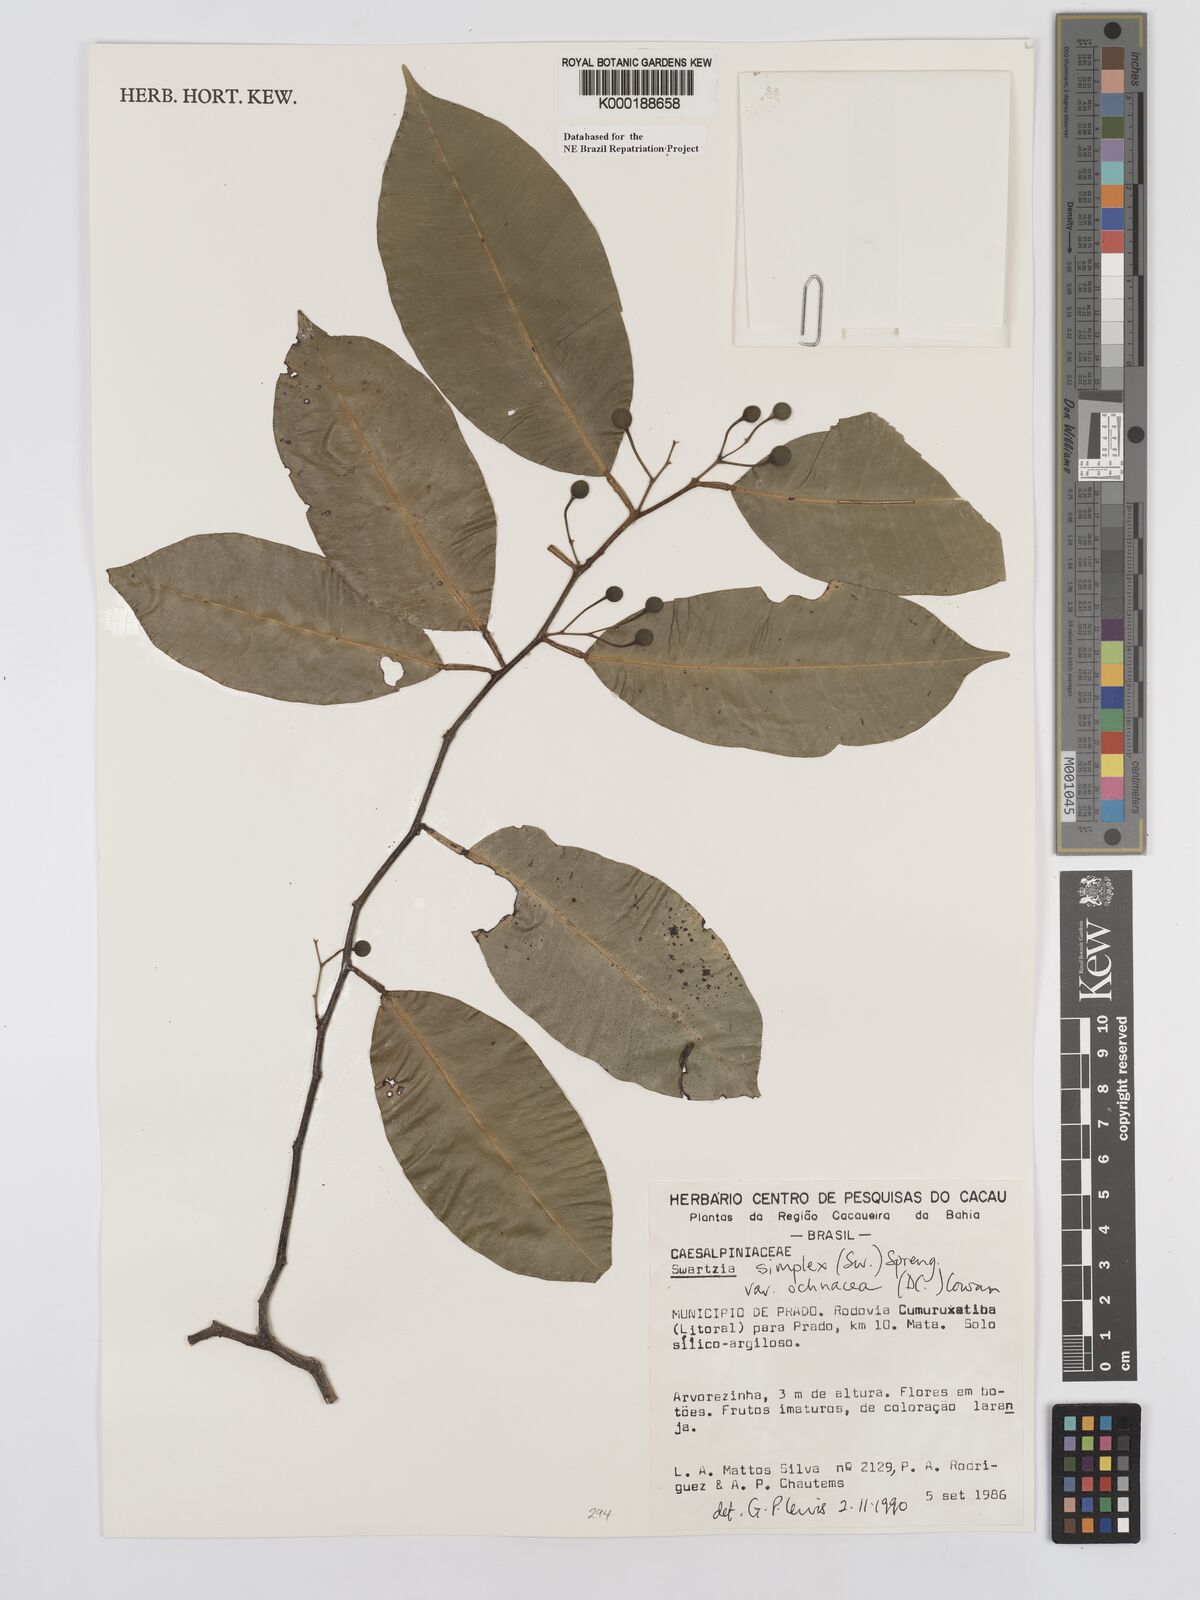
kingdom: Plantae
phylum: Tracheophyta
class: Magnoliopsida
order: Fabales
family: Fabaceae
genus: Swartzia
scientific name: Swartzia simplex
